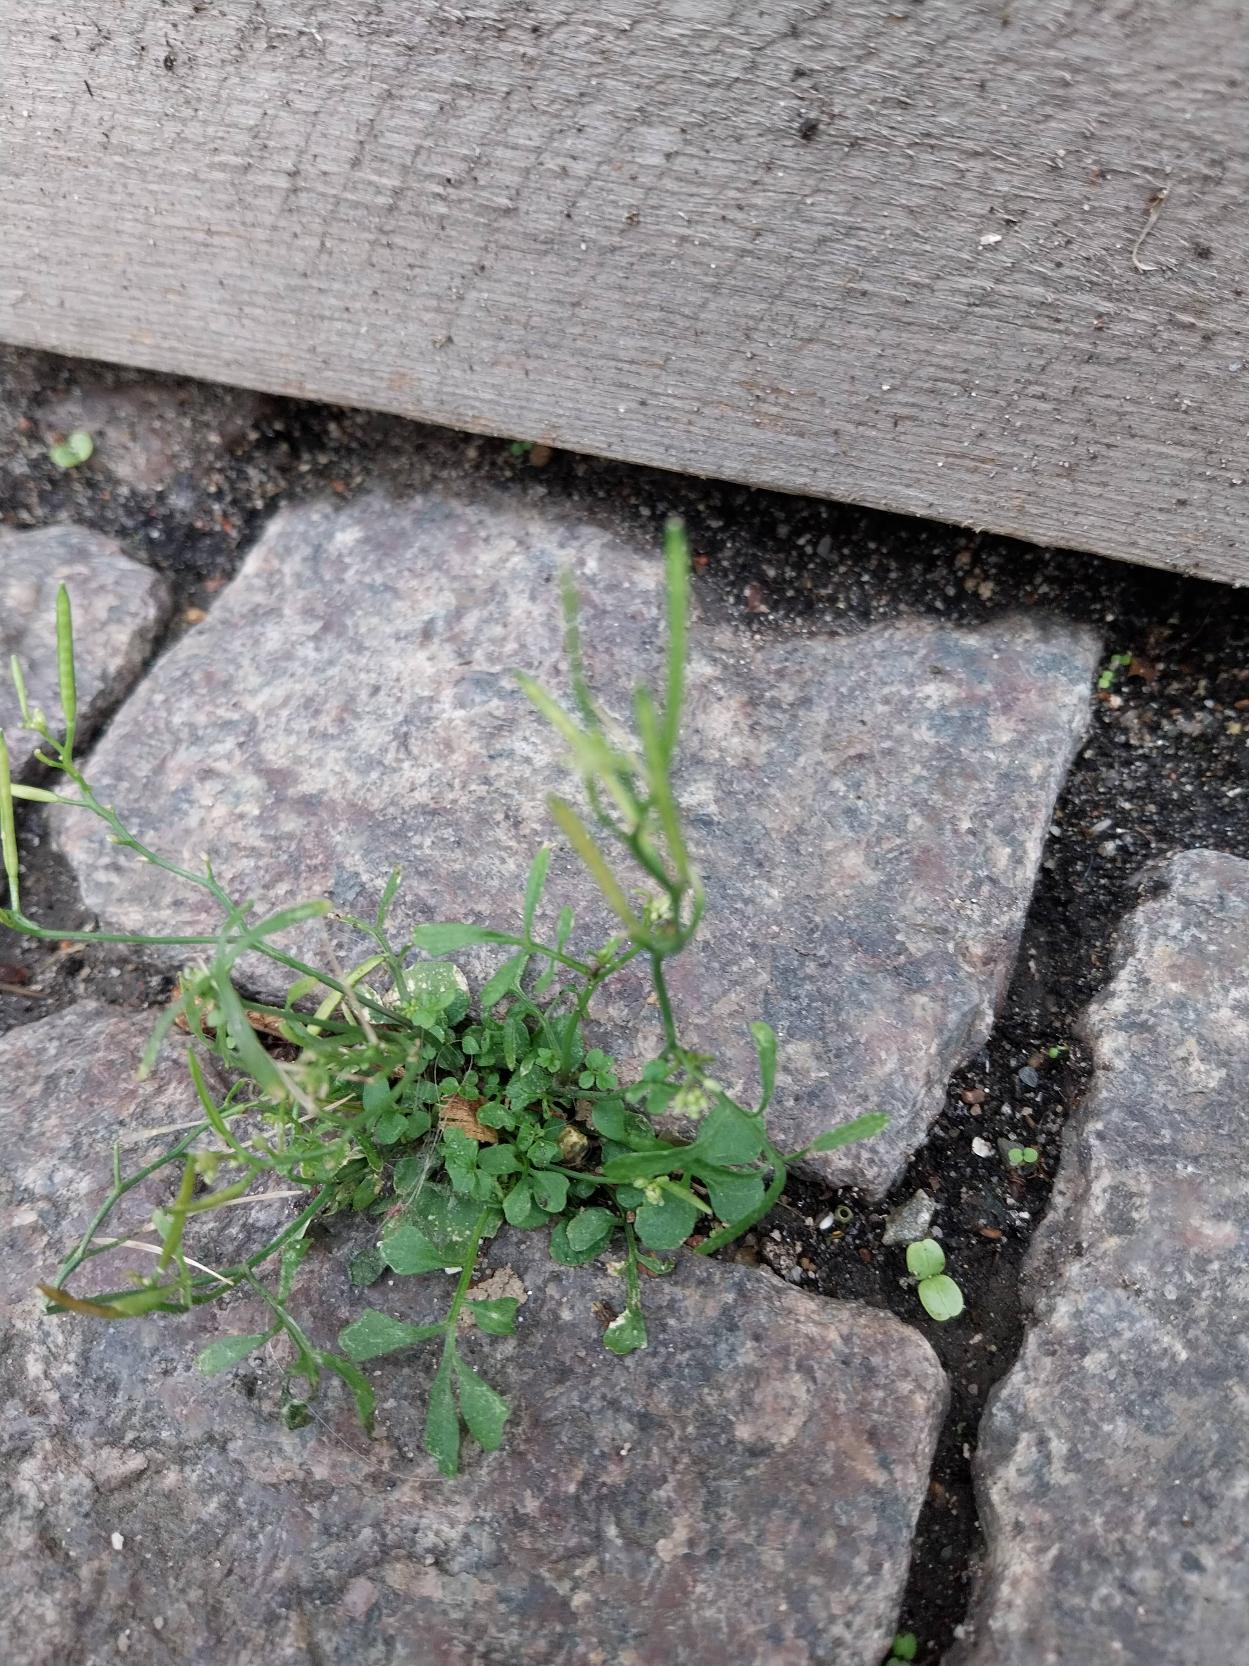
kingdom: Plantae
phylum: Tracheophyta
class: Magnoliopsida
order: Brassicales
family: Brassicaceae
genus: Cardamine
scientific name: Cardamine hirsuta
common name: Roset-springklap
